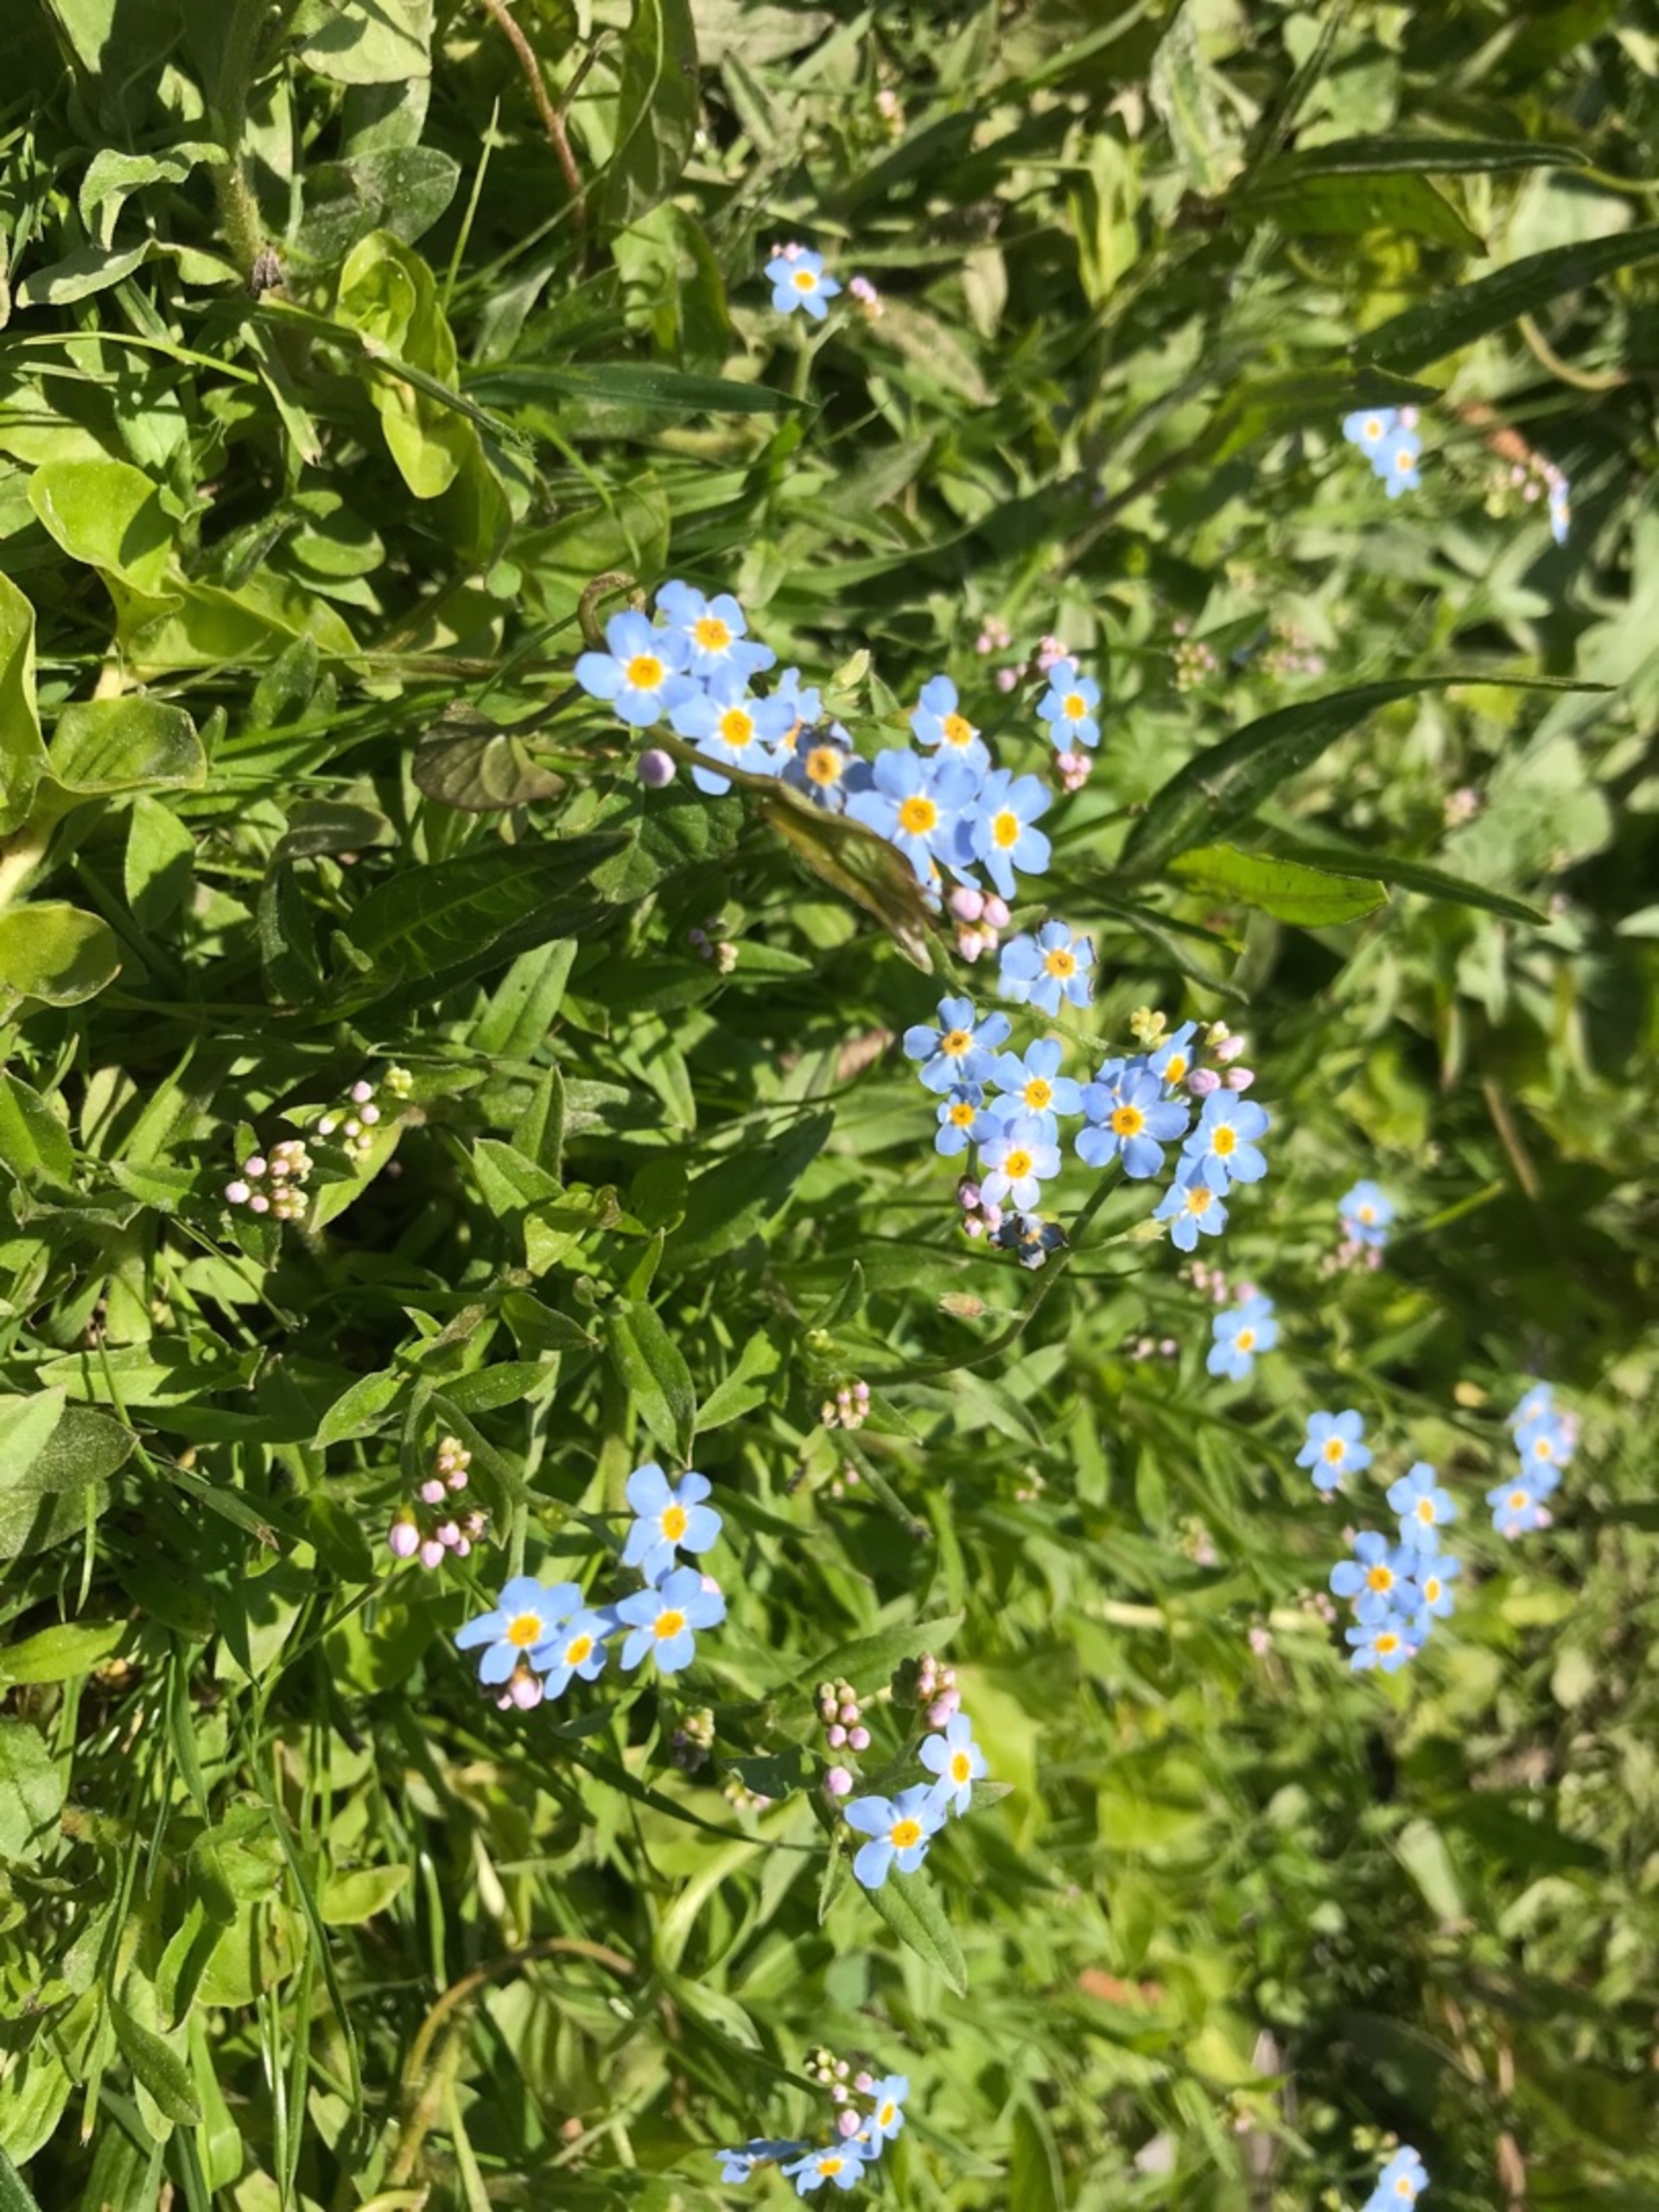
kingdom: Plantae
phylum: Tracheophyta
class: Magnoliopsida
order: Boraginales
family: Boraginaceae
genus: Myosotis
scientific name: Myosotis scorpioides
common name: Eng-forglemmigej
